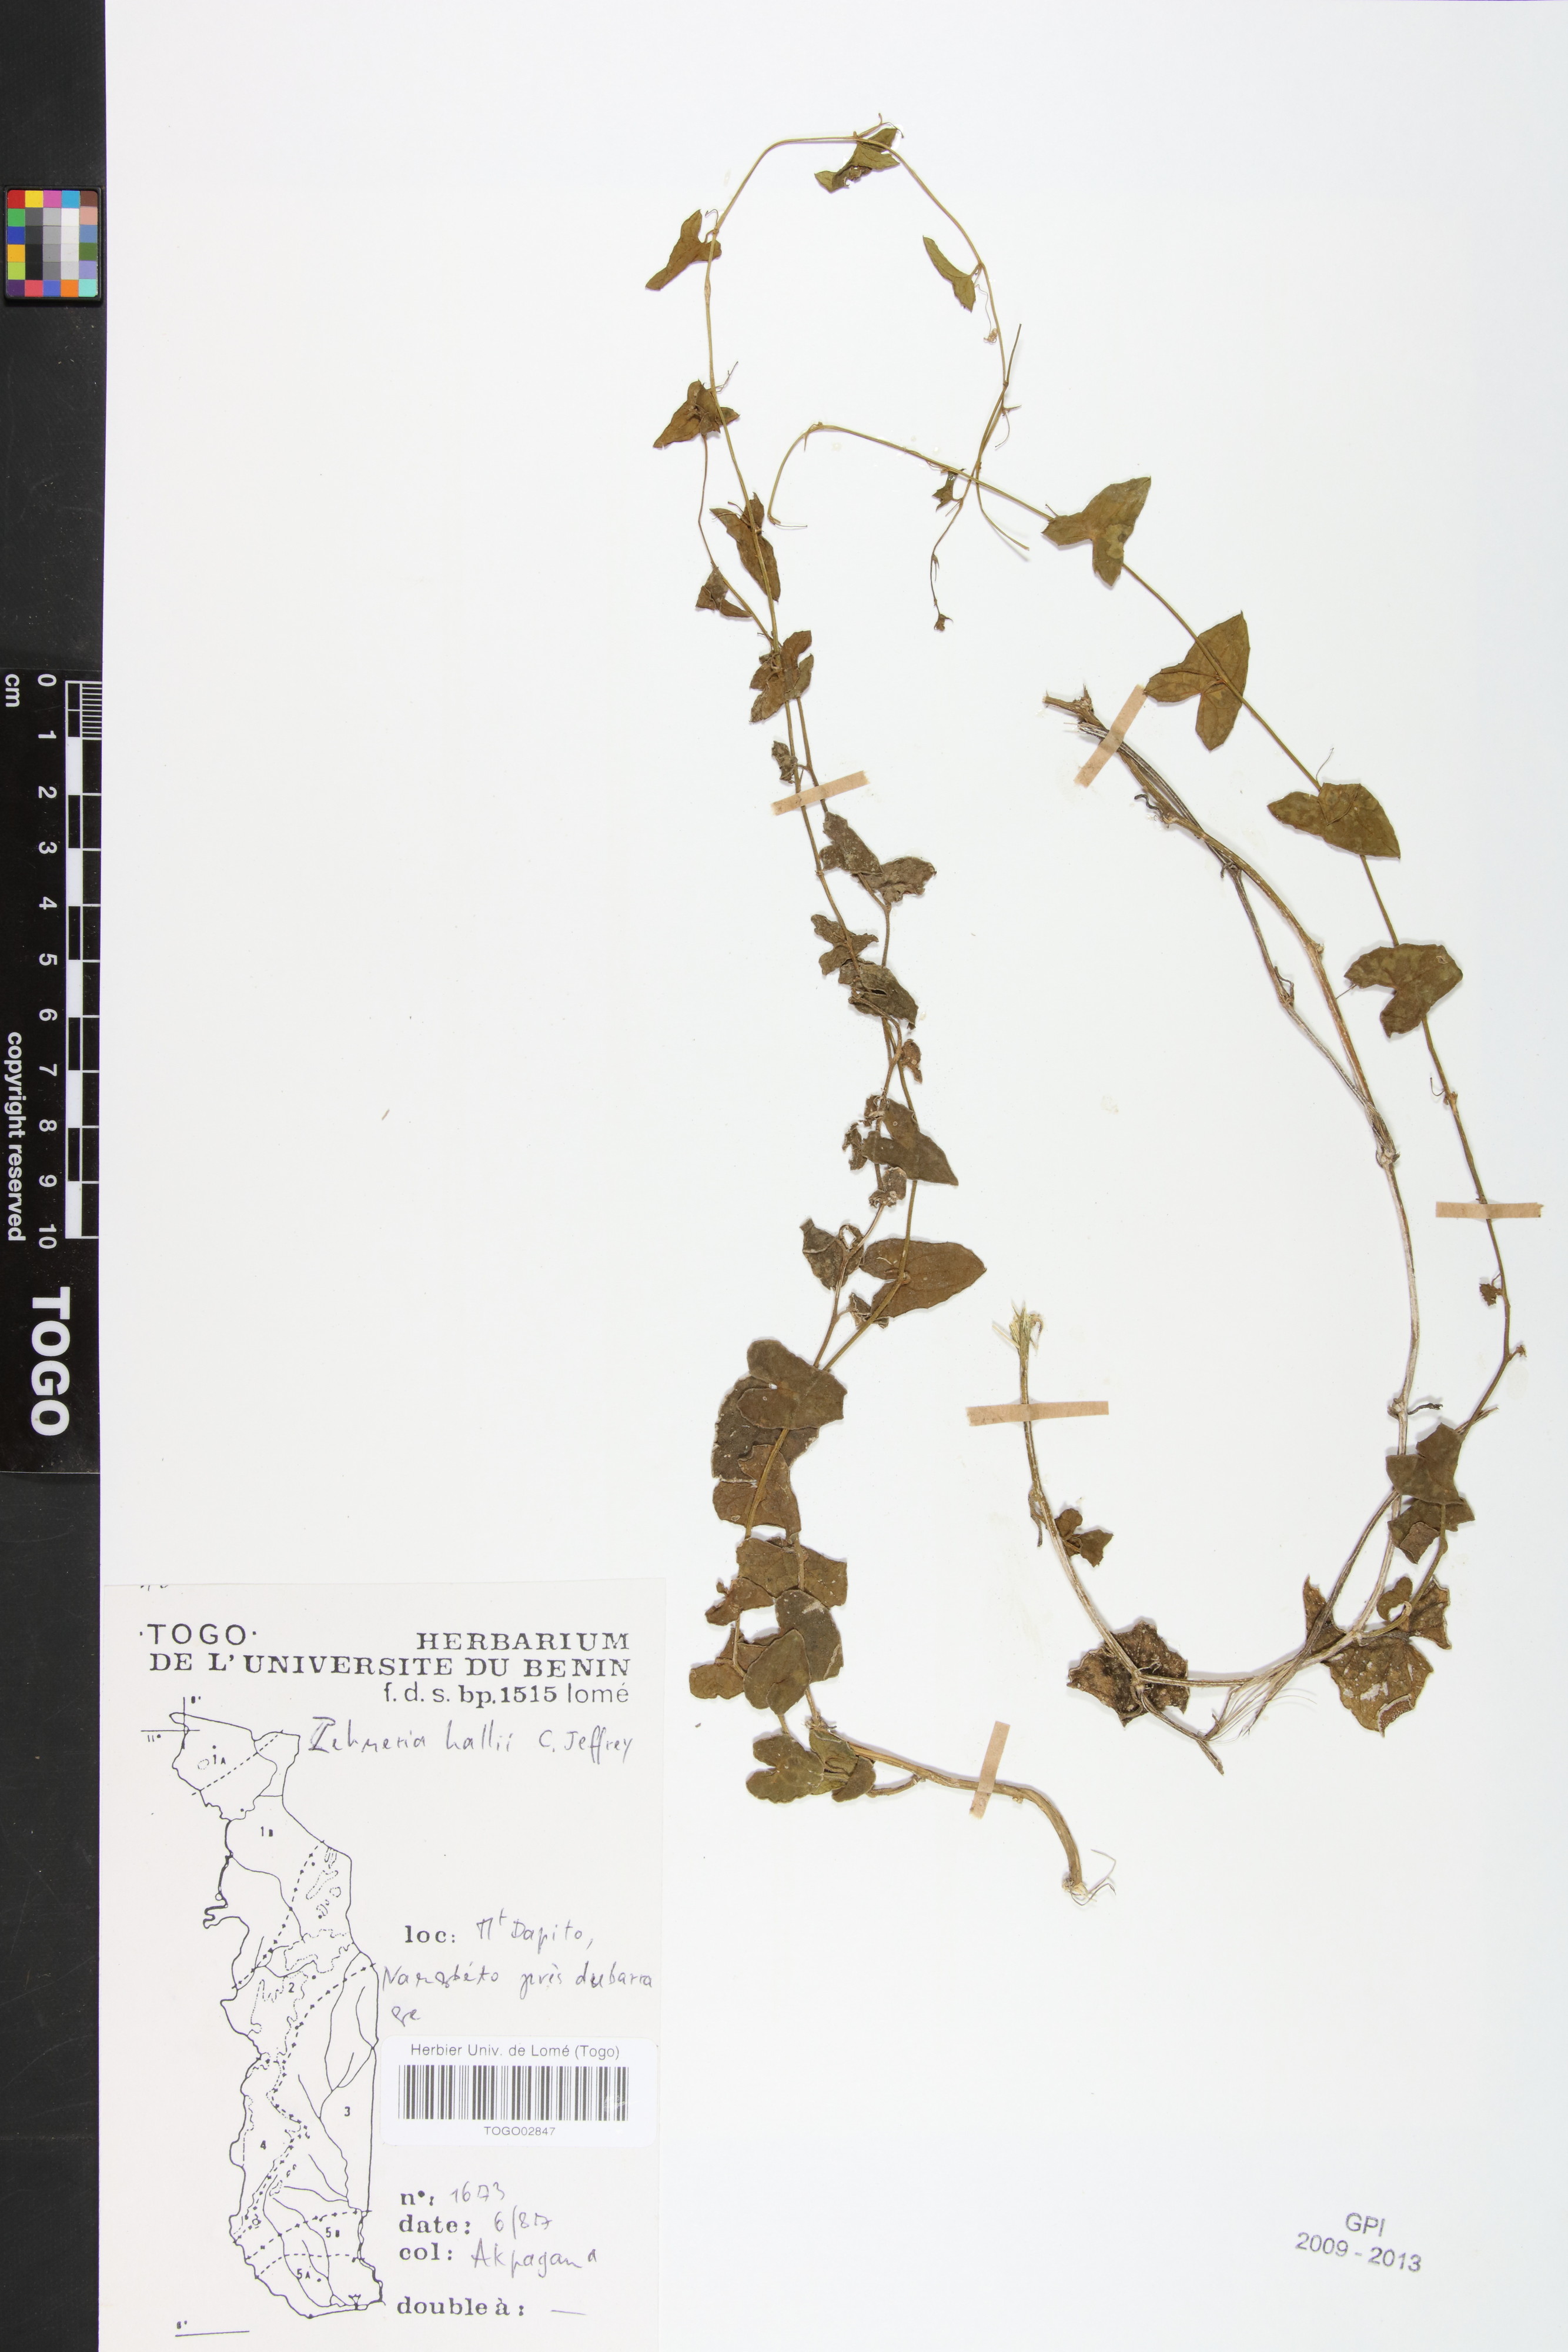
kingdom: Plantae
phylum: Tracheophyta
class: Magnoliopsida
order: Cucurbitales
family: Cucurbitaceae
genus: Zehneria
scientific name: Zehneria hallii
